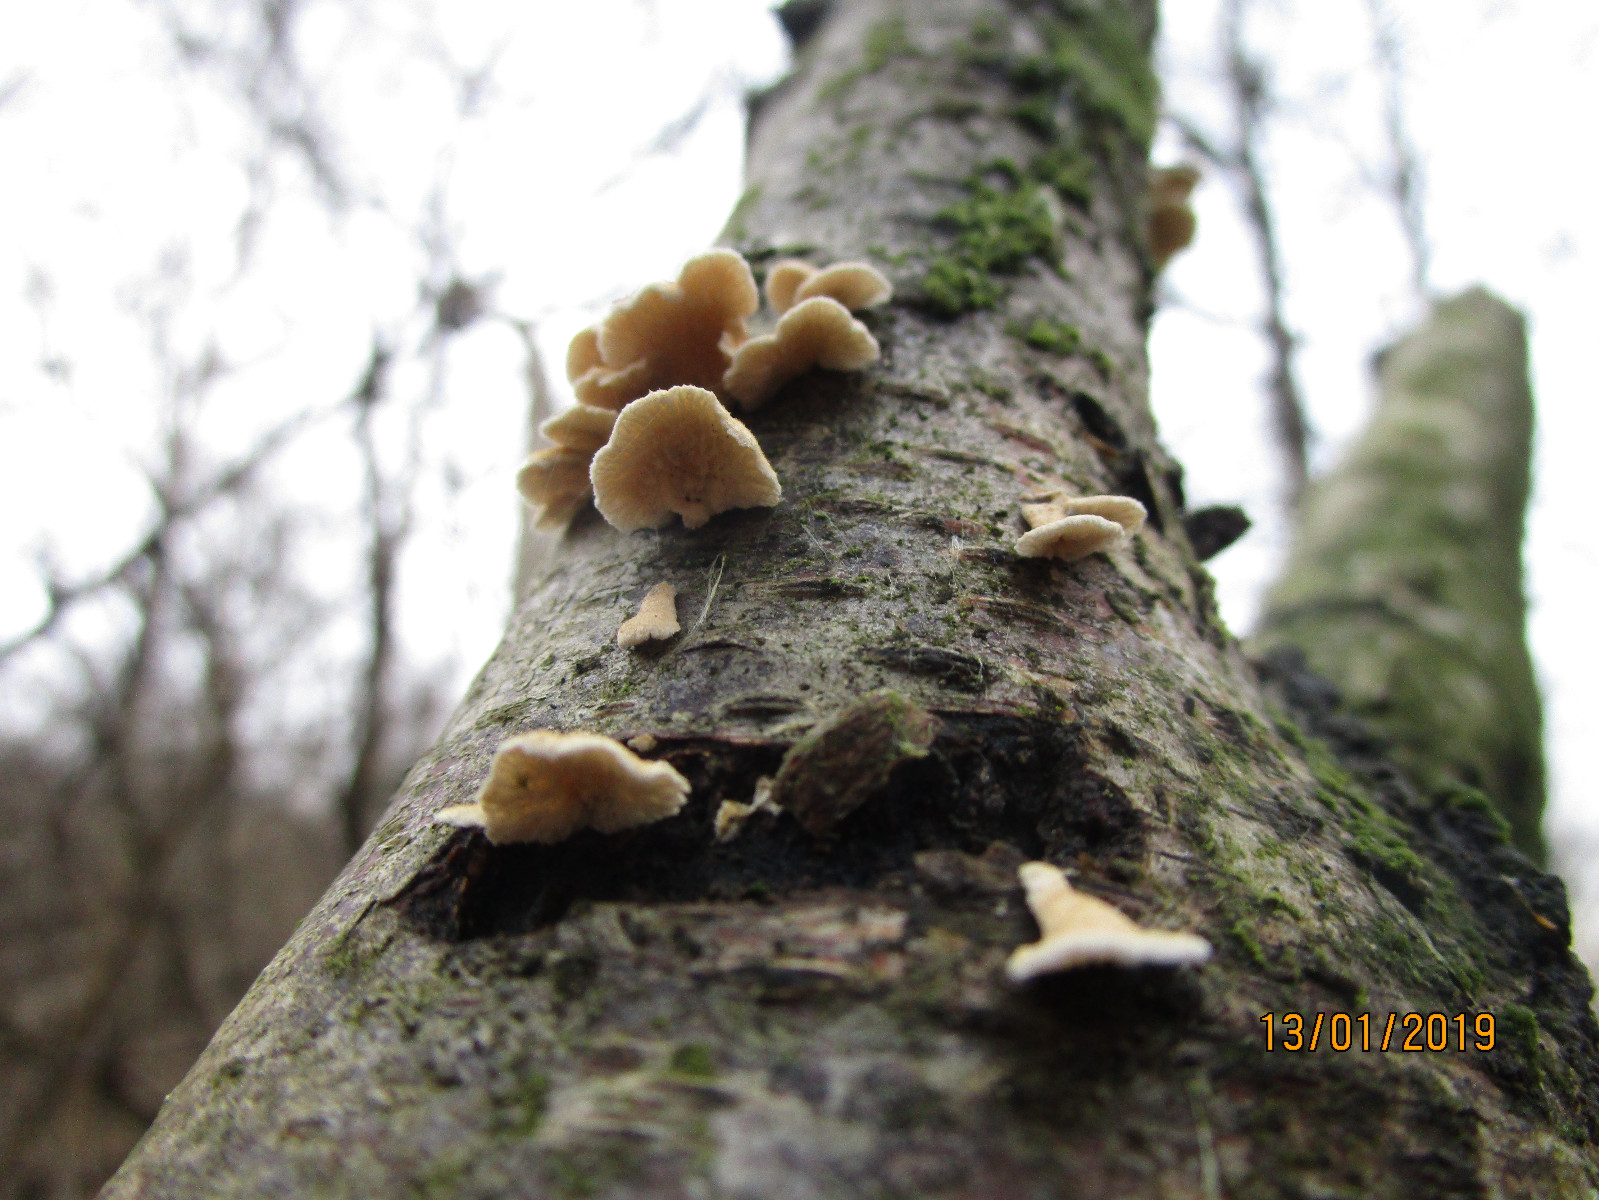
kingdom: Fungi
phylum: Basidiomycota
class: Agaricomycetes
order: Amylocorticiales
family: Amylocorticiaceae
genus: Plicaturopsis
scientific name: Plicaturopsis crispa
